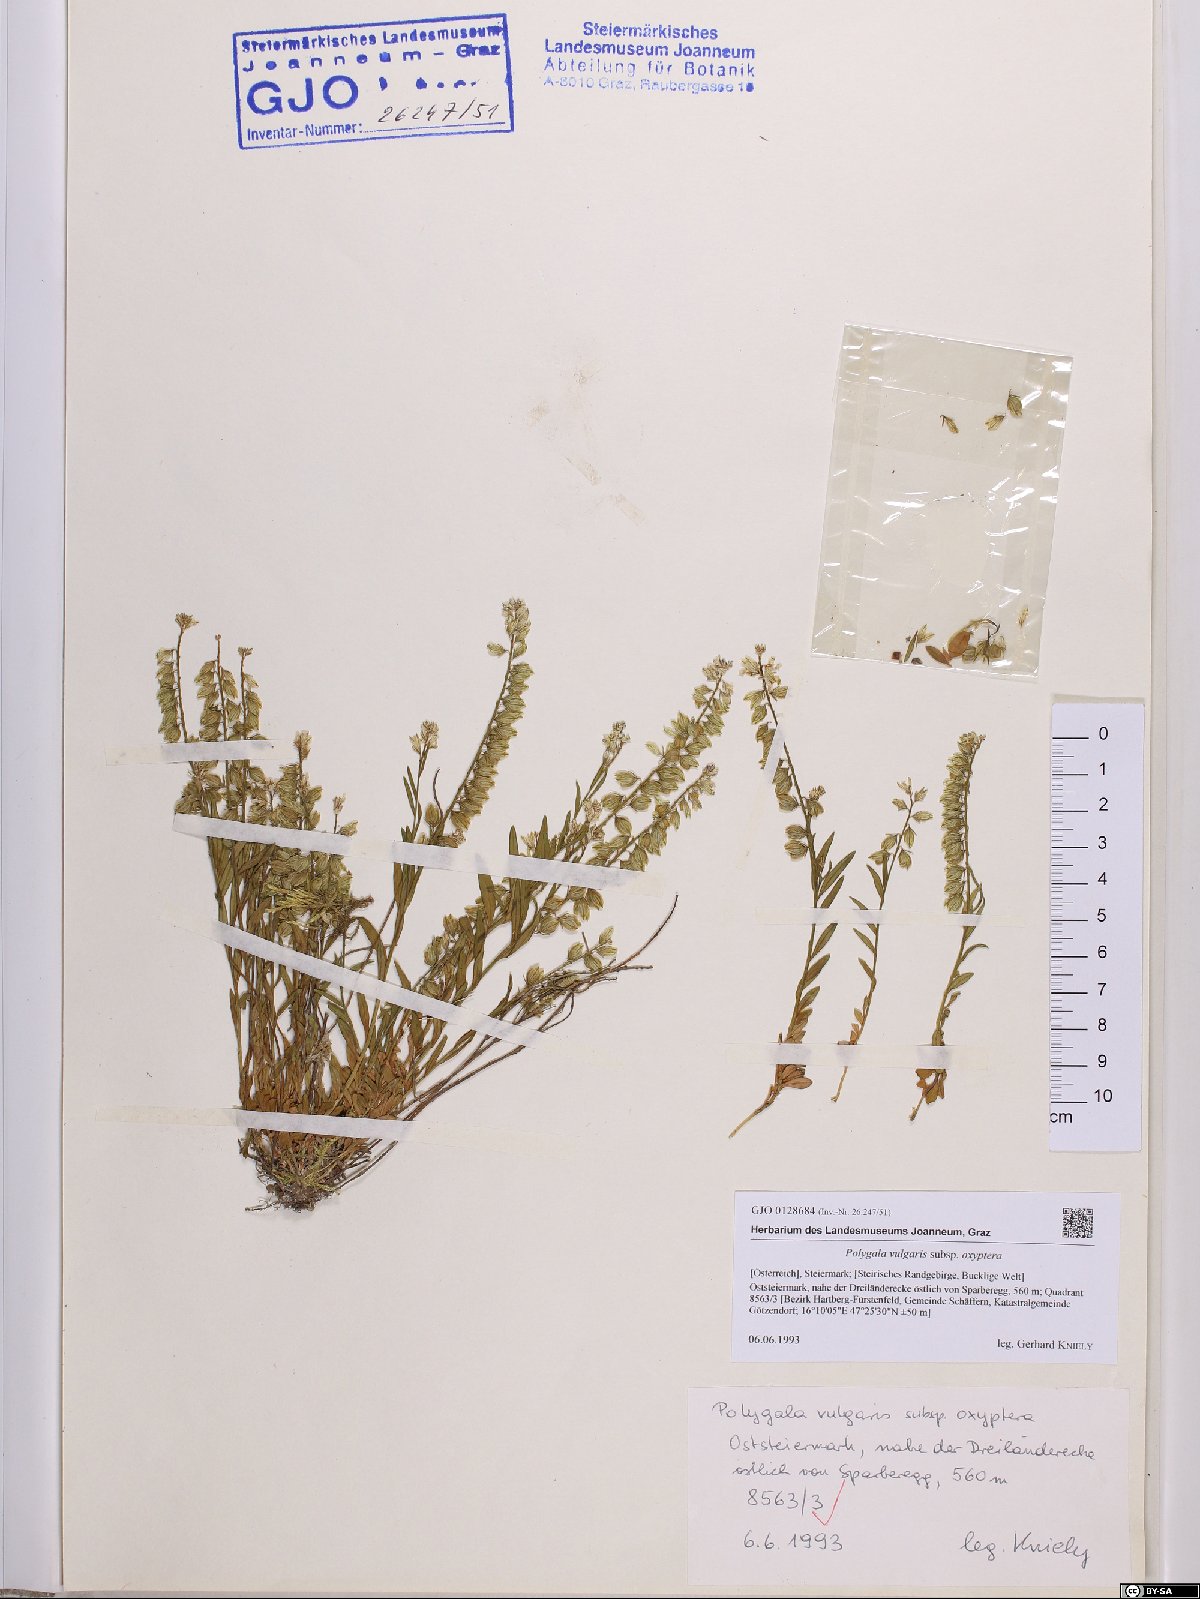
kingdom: Plantae
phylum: Tracheophyta
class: Magnoliopsida
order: Fabales
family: Polygalaceae
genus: Polygala
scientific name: Polygala vulgaris
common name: Common milkwort
